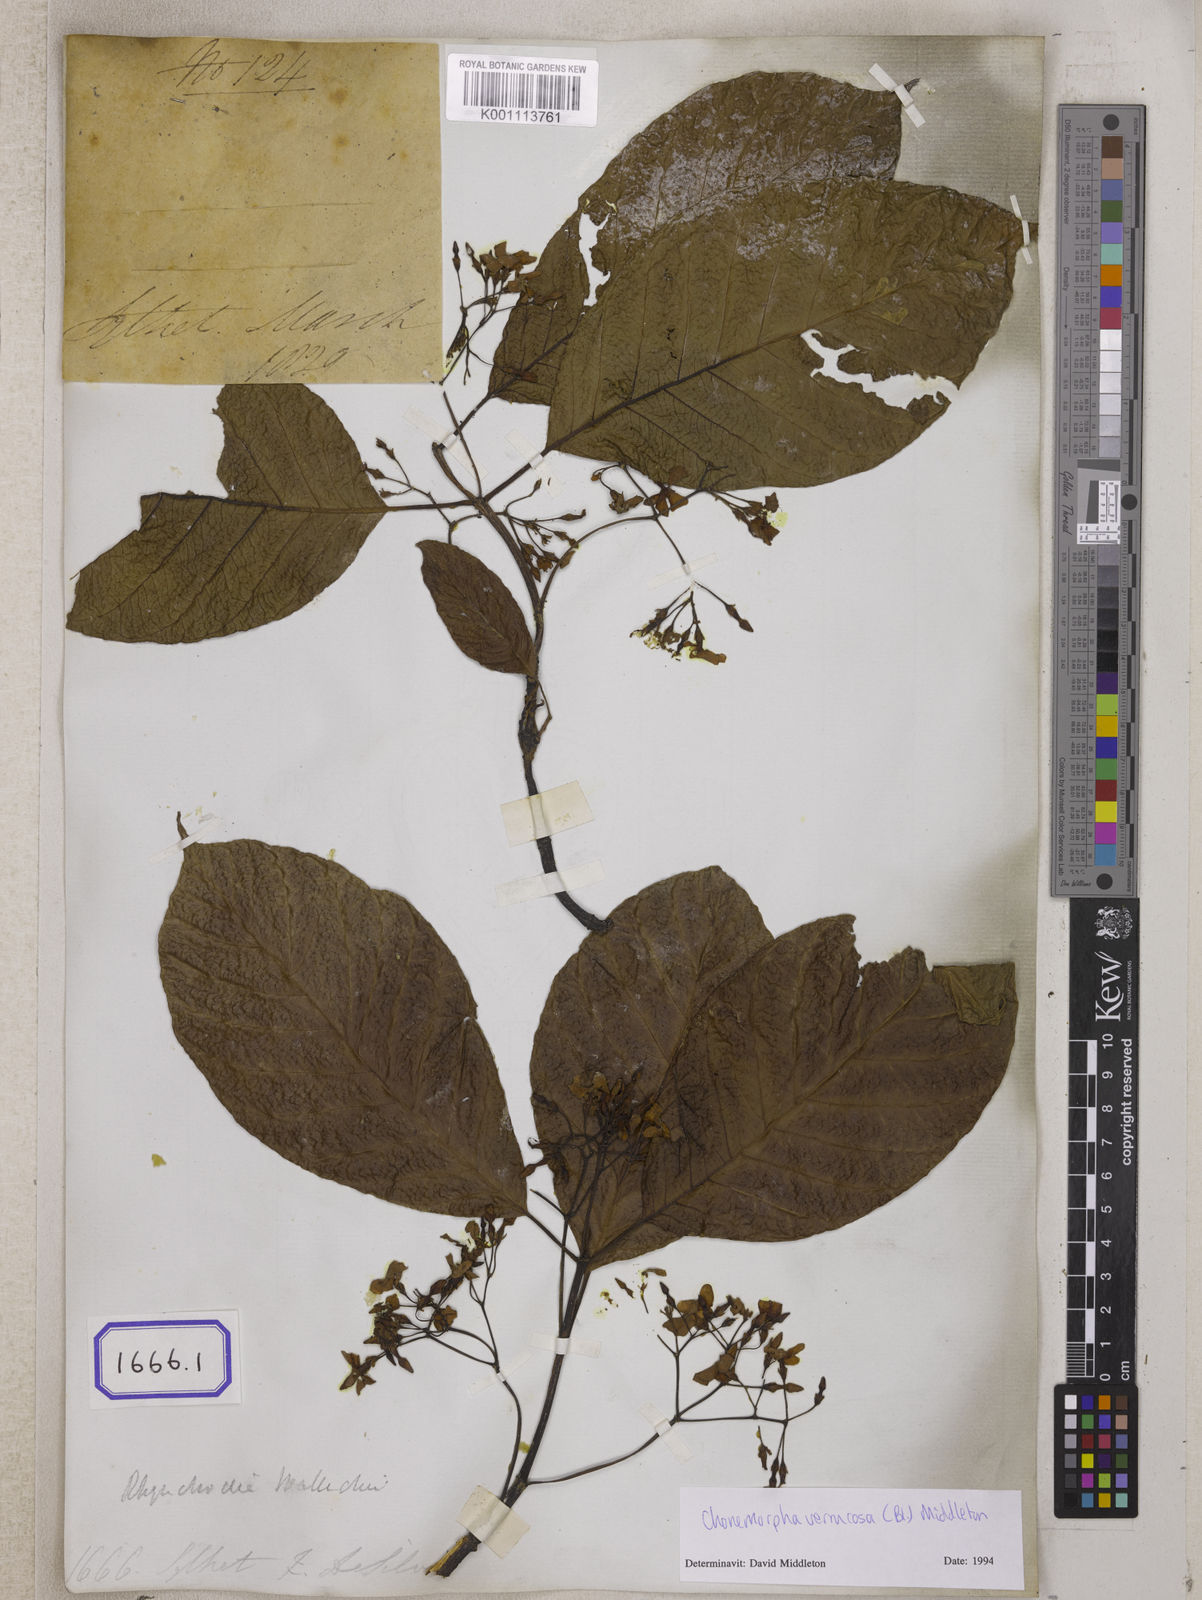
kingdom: Plantae
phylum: Tracheophyta
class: Magnoliopsida
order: Gentianales
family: Apocynaceae
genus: Echites
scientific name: Echites
